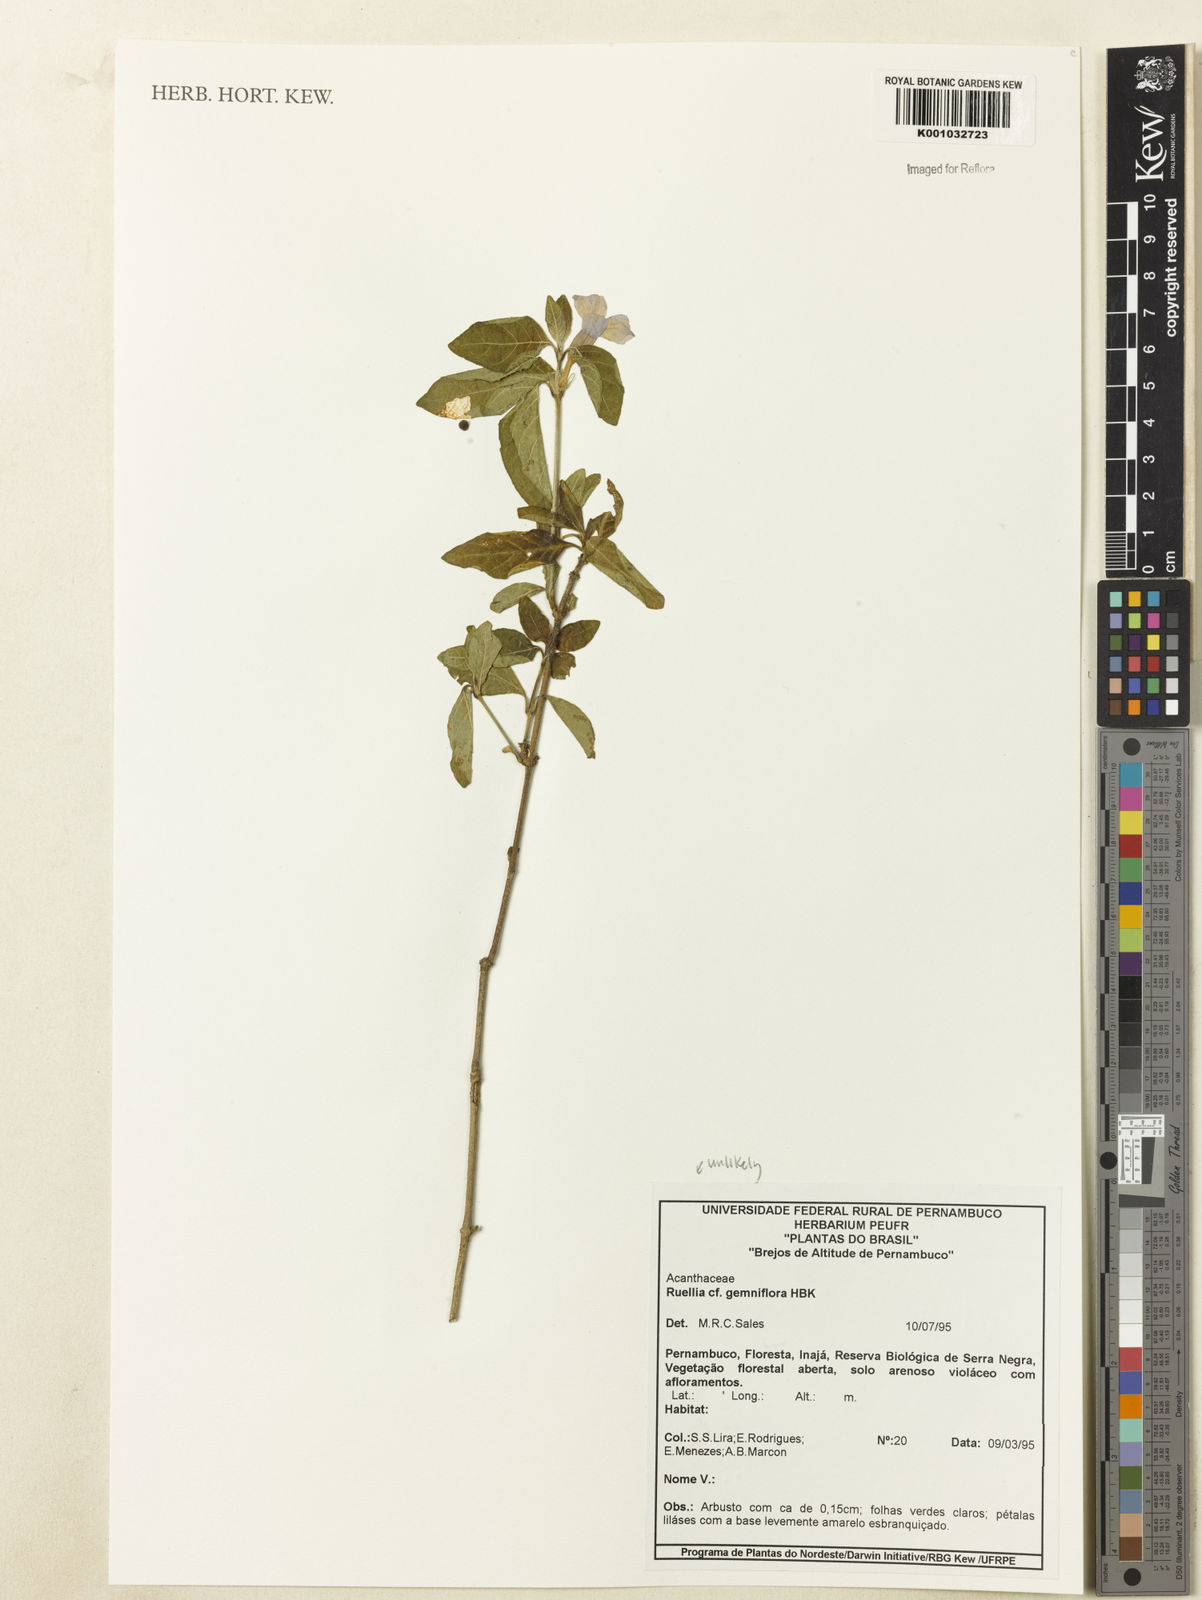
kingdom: Plantae
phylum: Tracheophyta
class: Magnoliopsida
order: Lamiales
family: Acanthaceae
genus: Ruellia
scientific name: Ruellia
